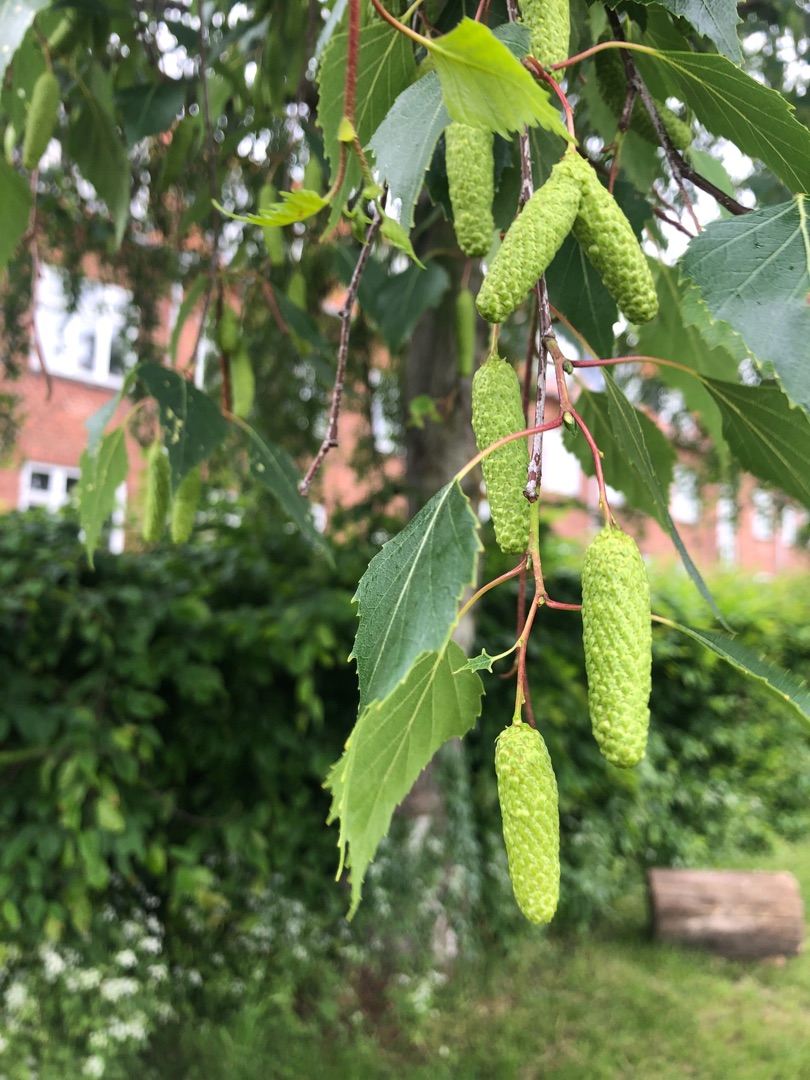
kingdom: Plantae
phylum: Tracheophyta
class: Magnoliopsida
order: Fagales
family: Betulaceae
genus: Betula
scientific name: Betula pendula
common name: Vorte-birk
